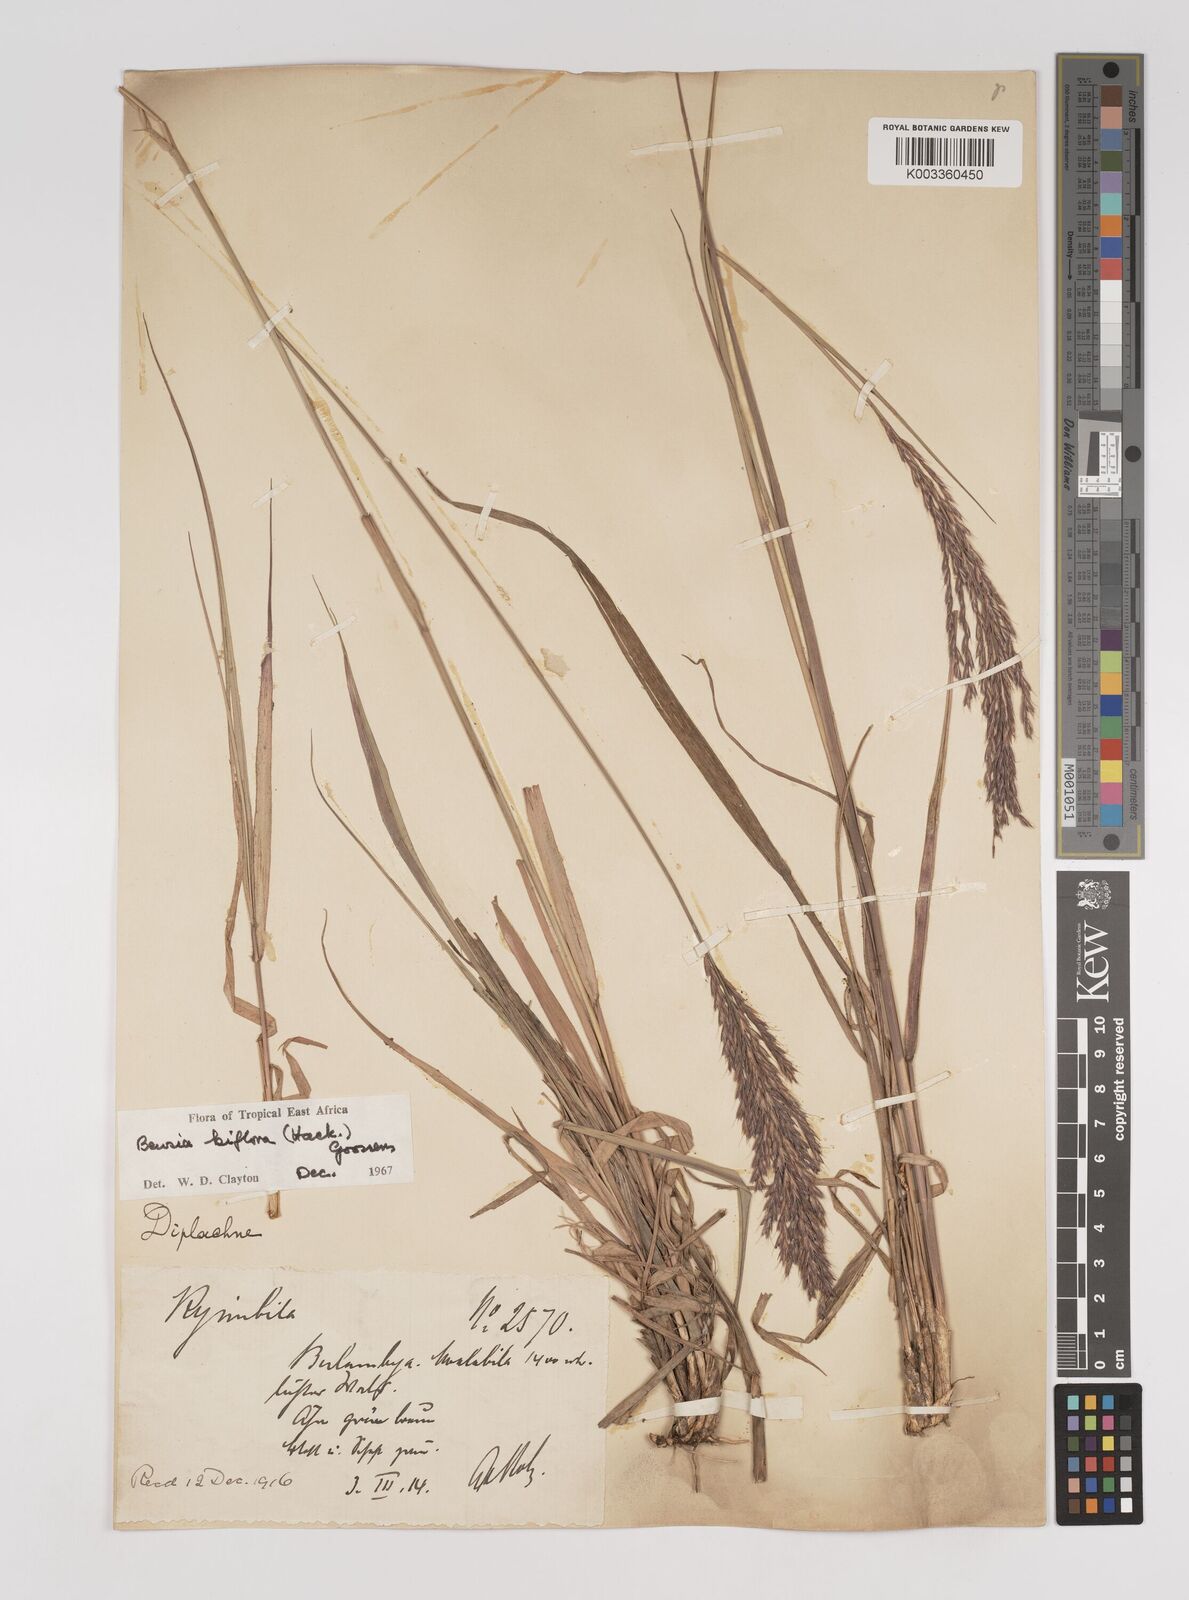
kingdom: Plantae
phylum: Tracheophyta
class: Liliopsida
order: Poales
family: Poaceae
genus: Bewsia
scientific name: Bewsia biflora
